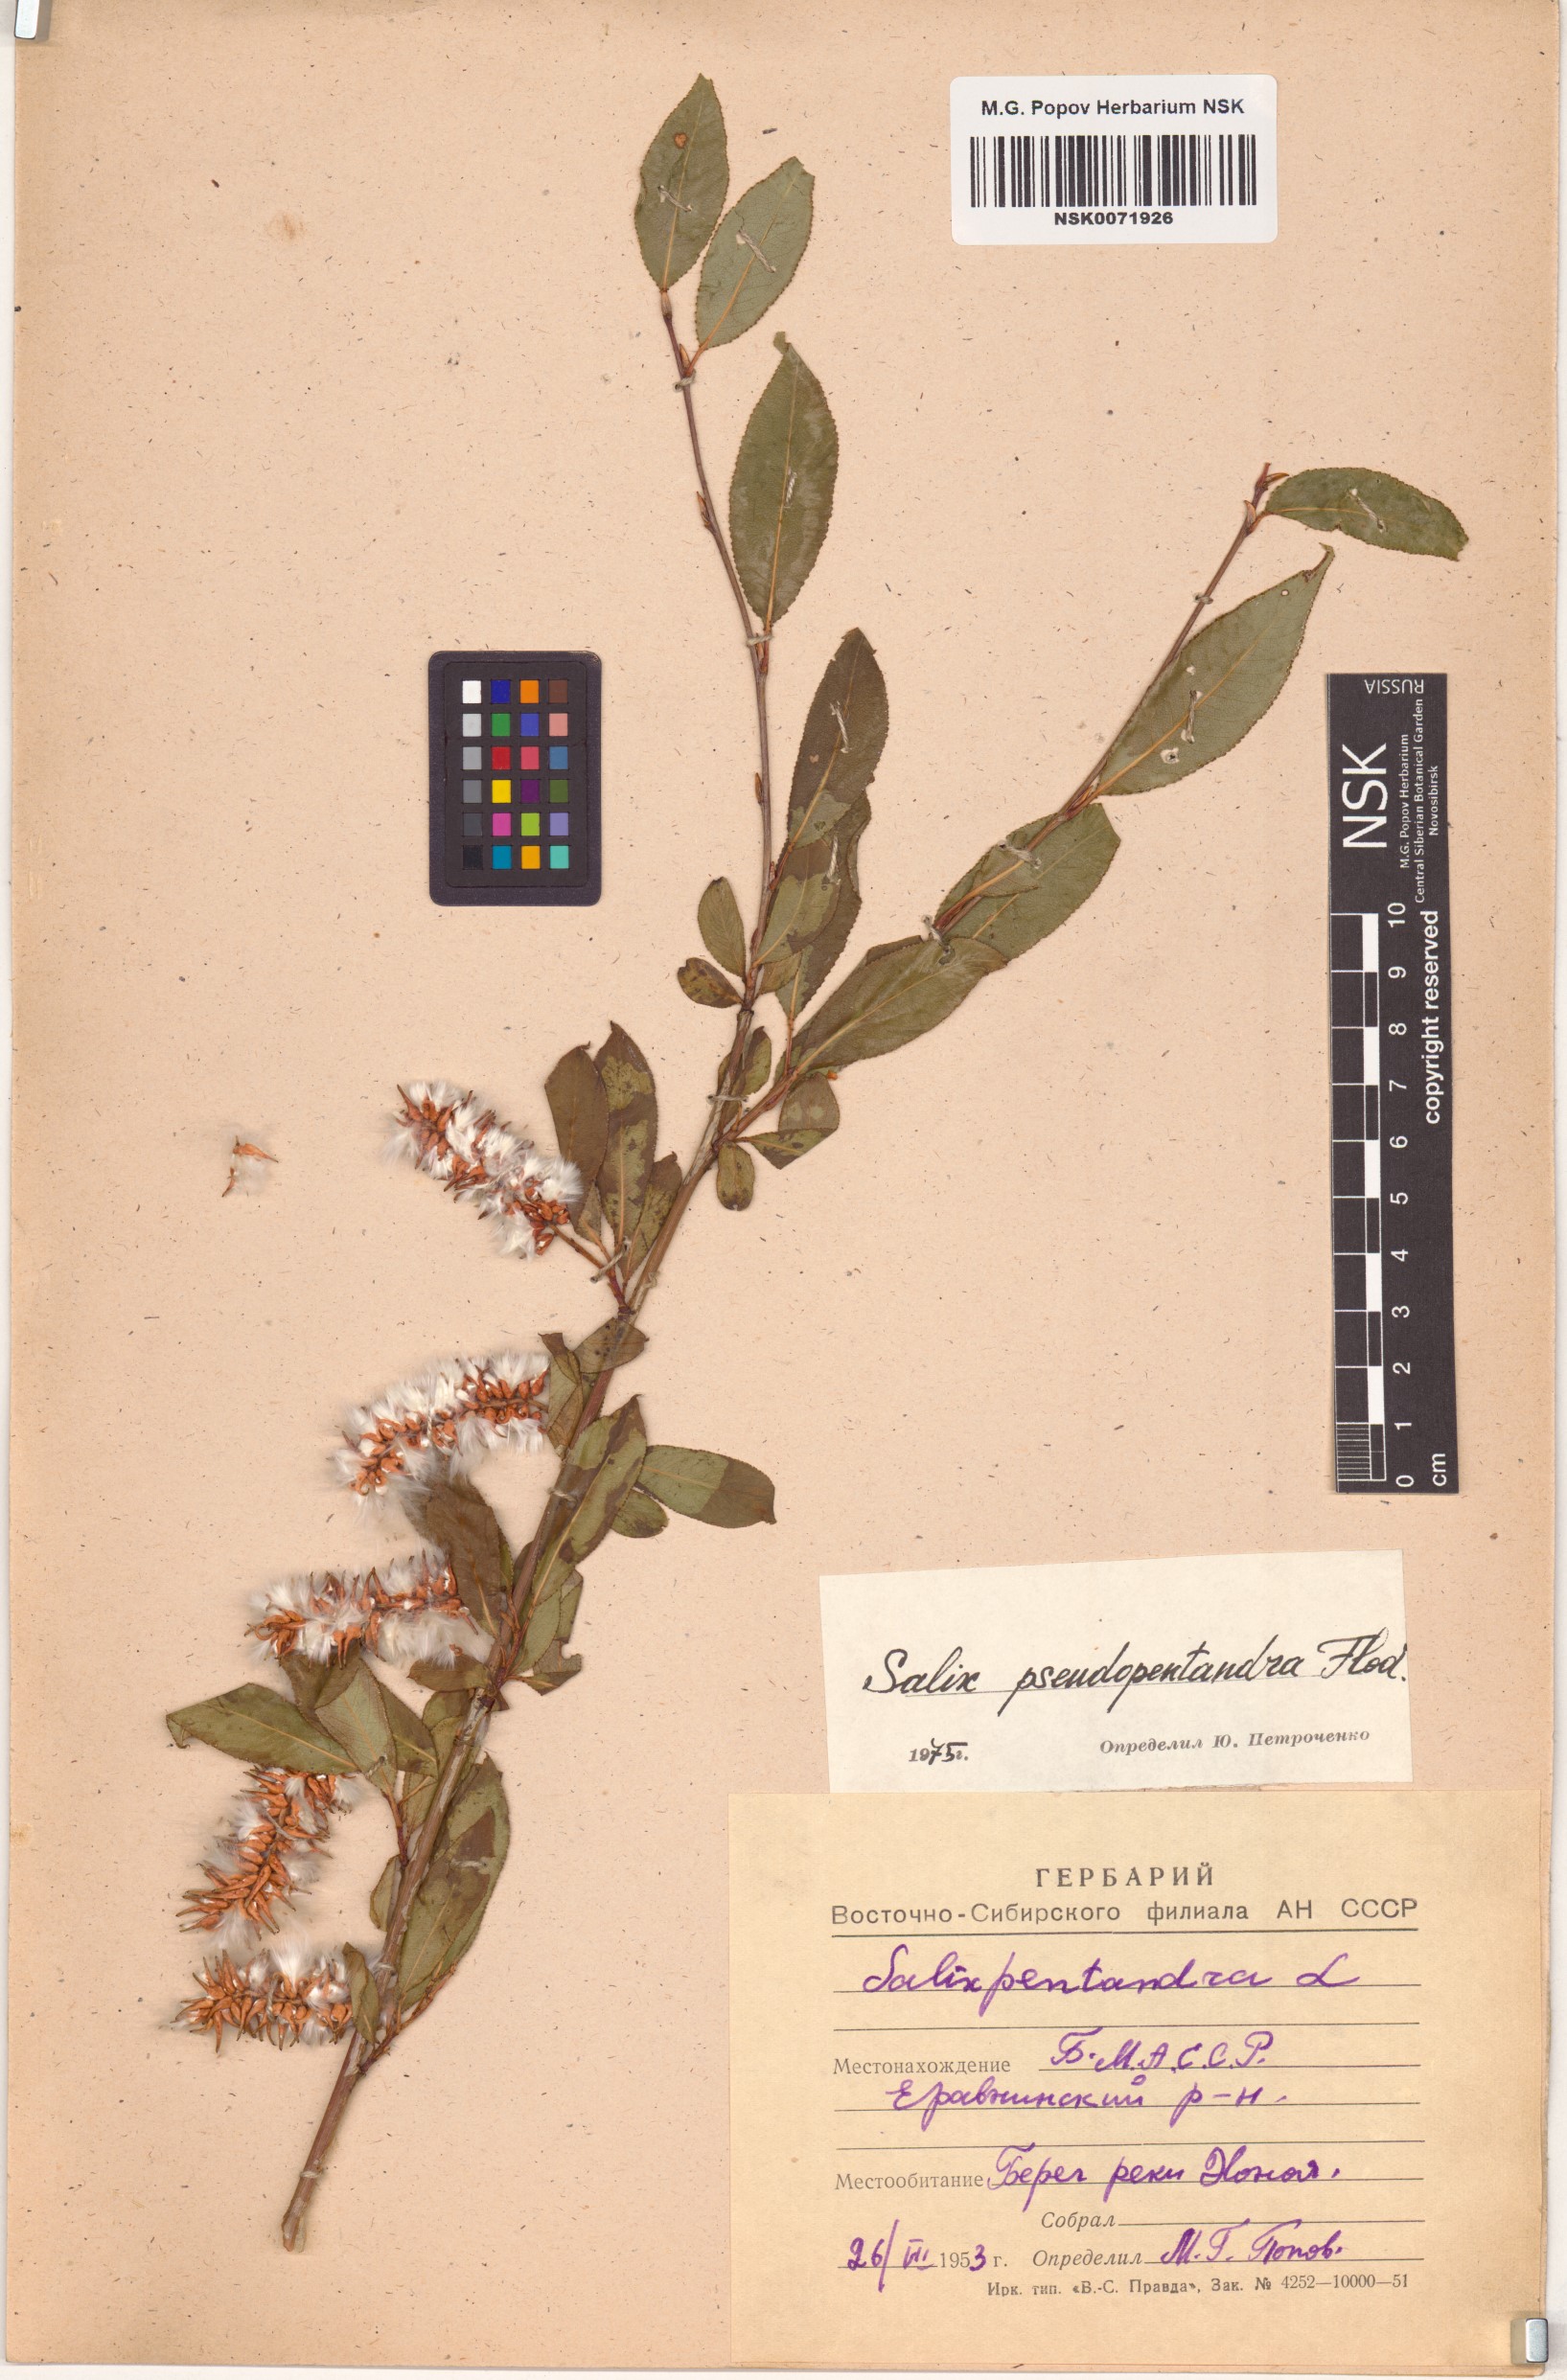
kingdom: Plantae
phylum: Tracheophyta
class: Magnoliopsida
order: Malpighiales
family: Salicaceae
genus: Salix
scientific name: Salix pseudopentandra
